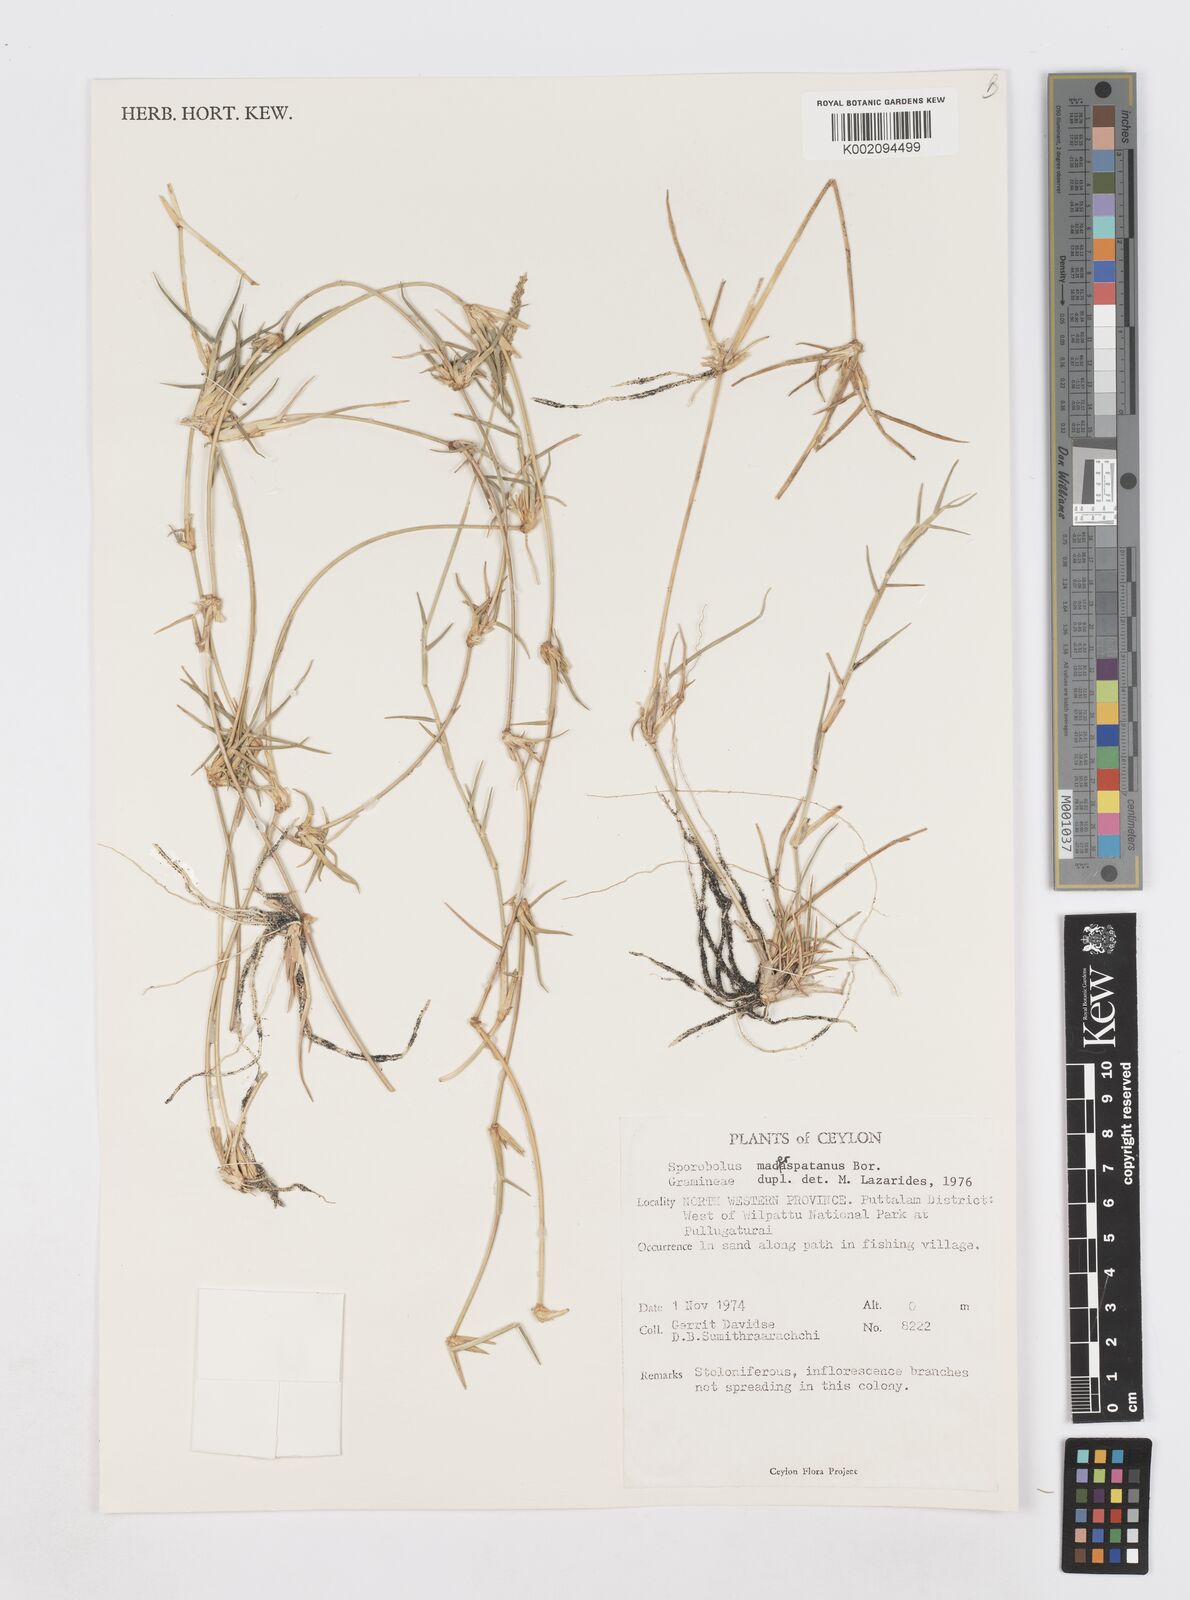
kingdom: Plantae
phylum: Tracheophyta
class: Liliopsida
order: Poales
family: Poaceae
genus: Sporobolus
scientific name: Sporobolus maderaspatanus
